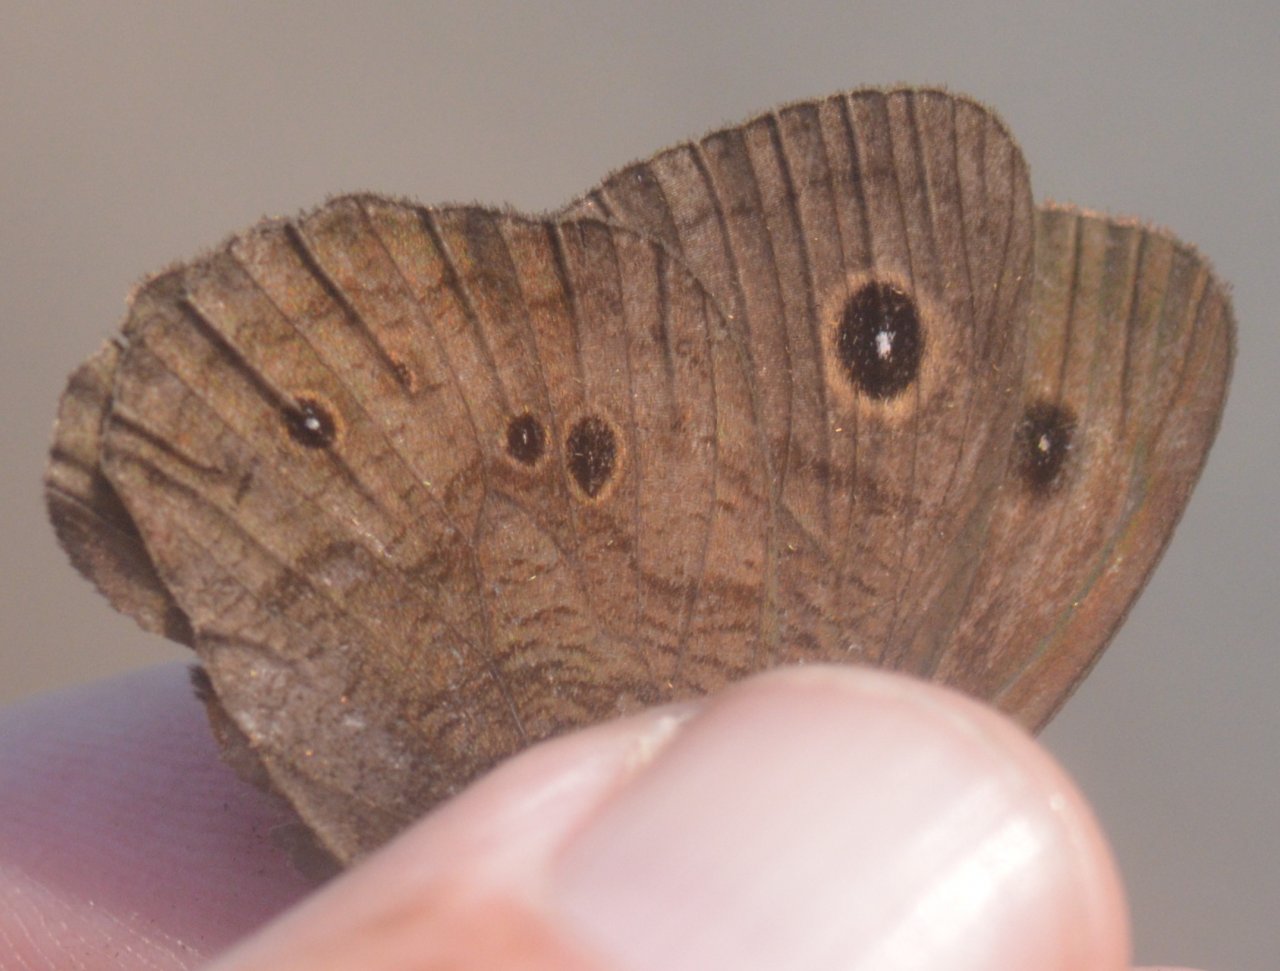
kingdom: Animalia
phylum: Arthropoda
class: Insecta
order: Lepidoptera
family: Nymphalidae
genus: Cercyonis
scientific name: Cercyonis pegala
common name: Common Wood-Nymph
